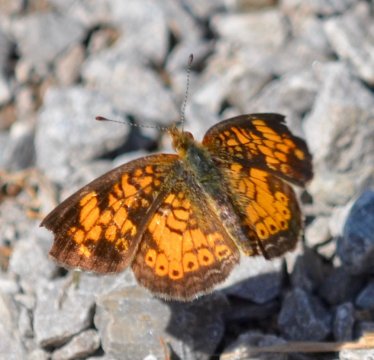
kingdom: Animalia
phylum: Arthropoda
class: Insecta
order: Lepidoptera
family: Nymphalidae
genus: Phyciodes
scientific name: Phyciodes tharos
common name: Pearl Crescent
